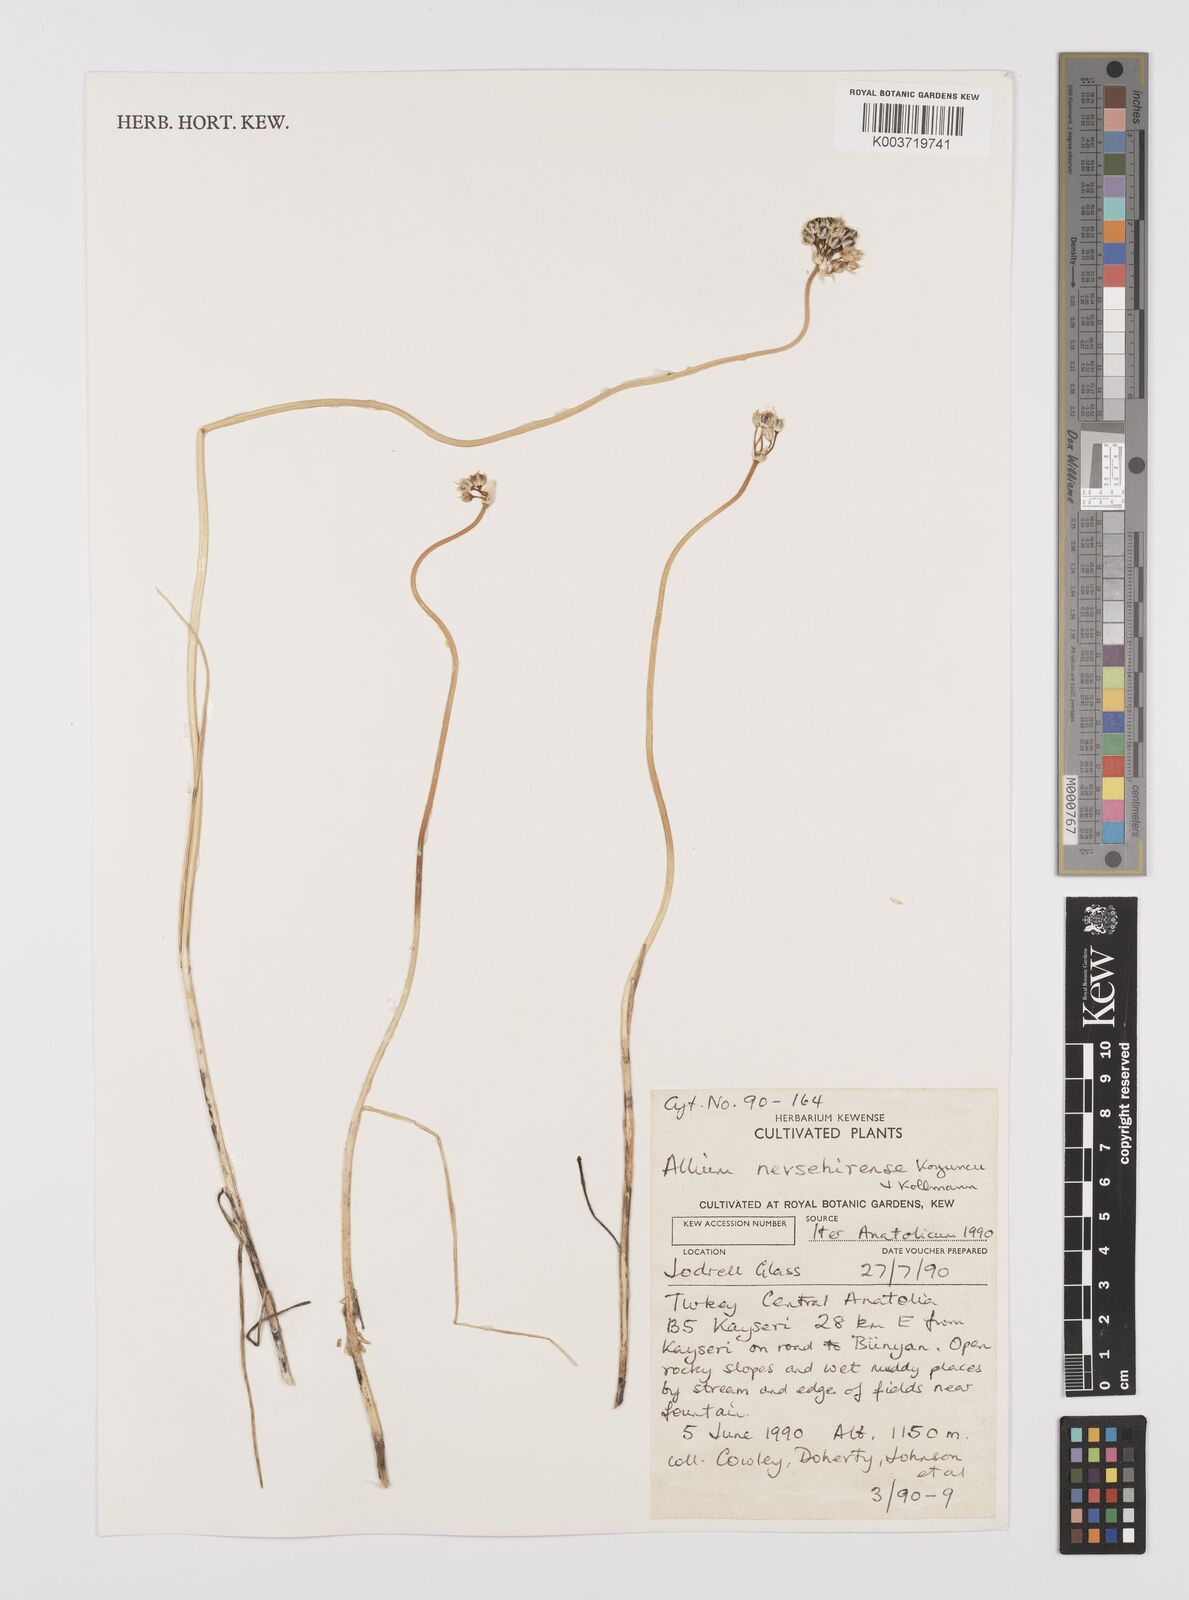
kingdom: Plantae
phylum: Tracheophyta
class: Liliopsida
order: Asparagales
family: Amaryllidaceae
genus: Allium
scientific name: Allium nevsehirense
